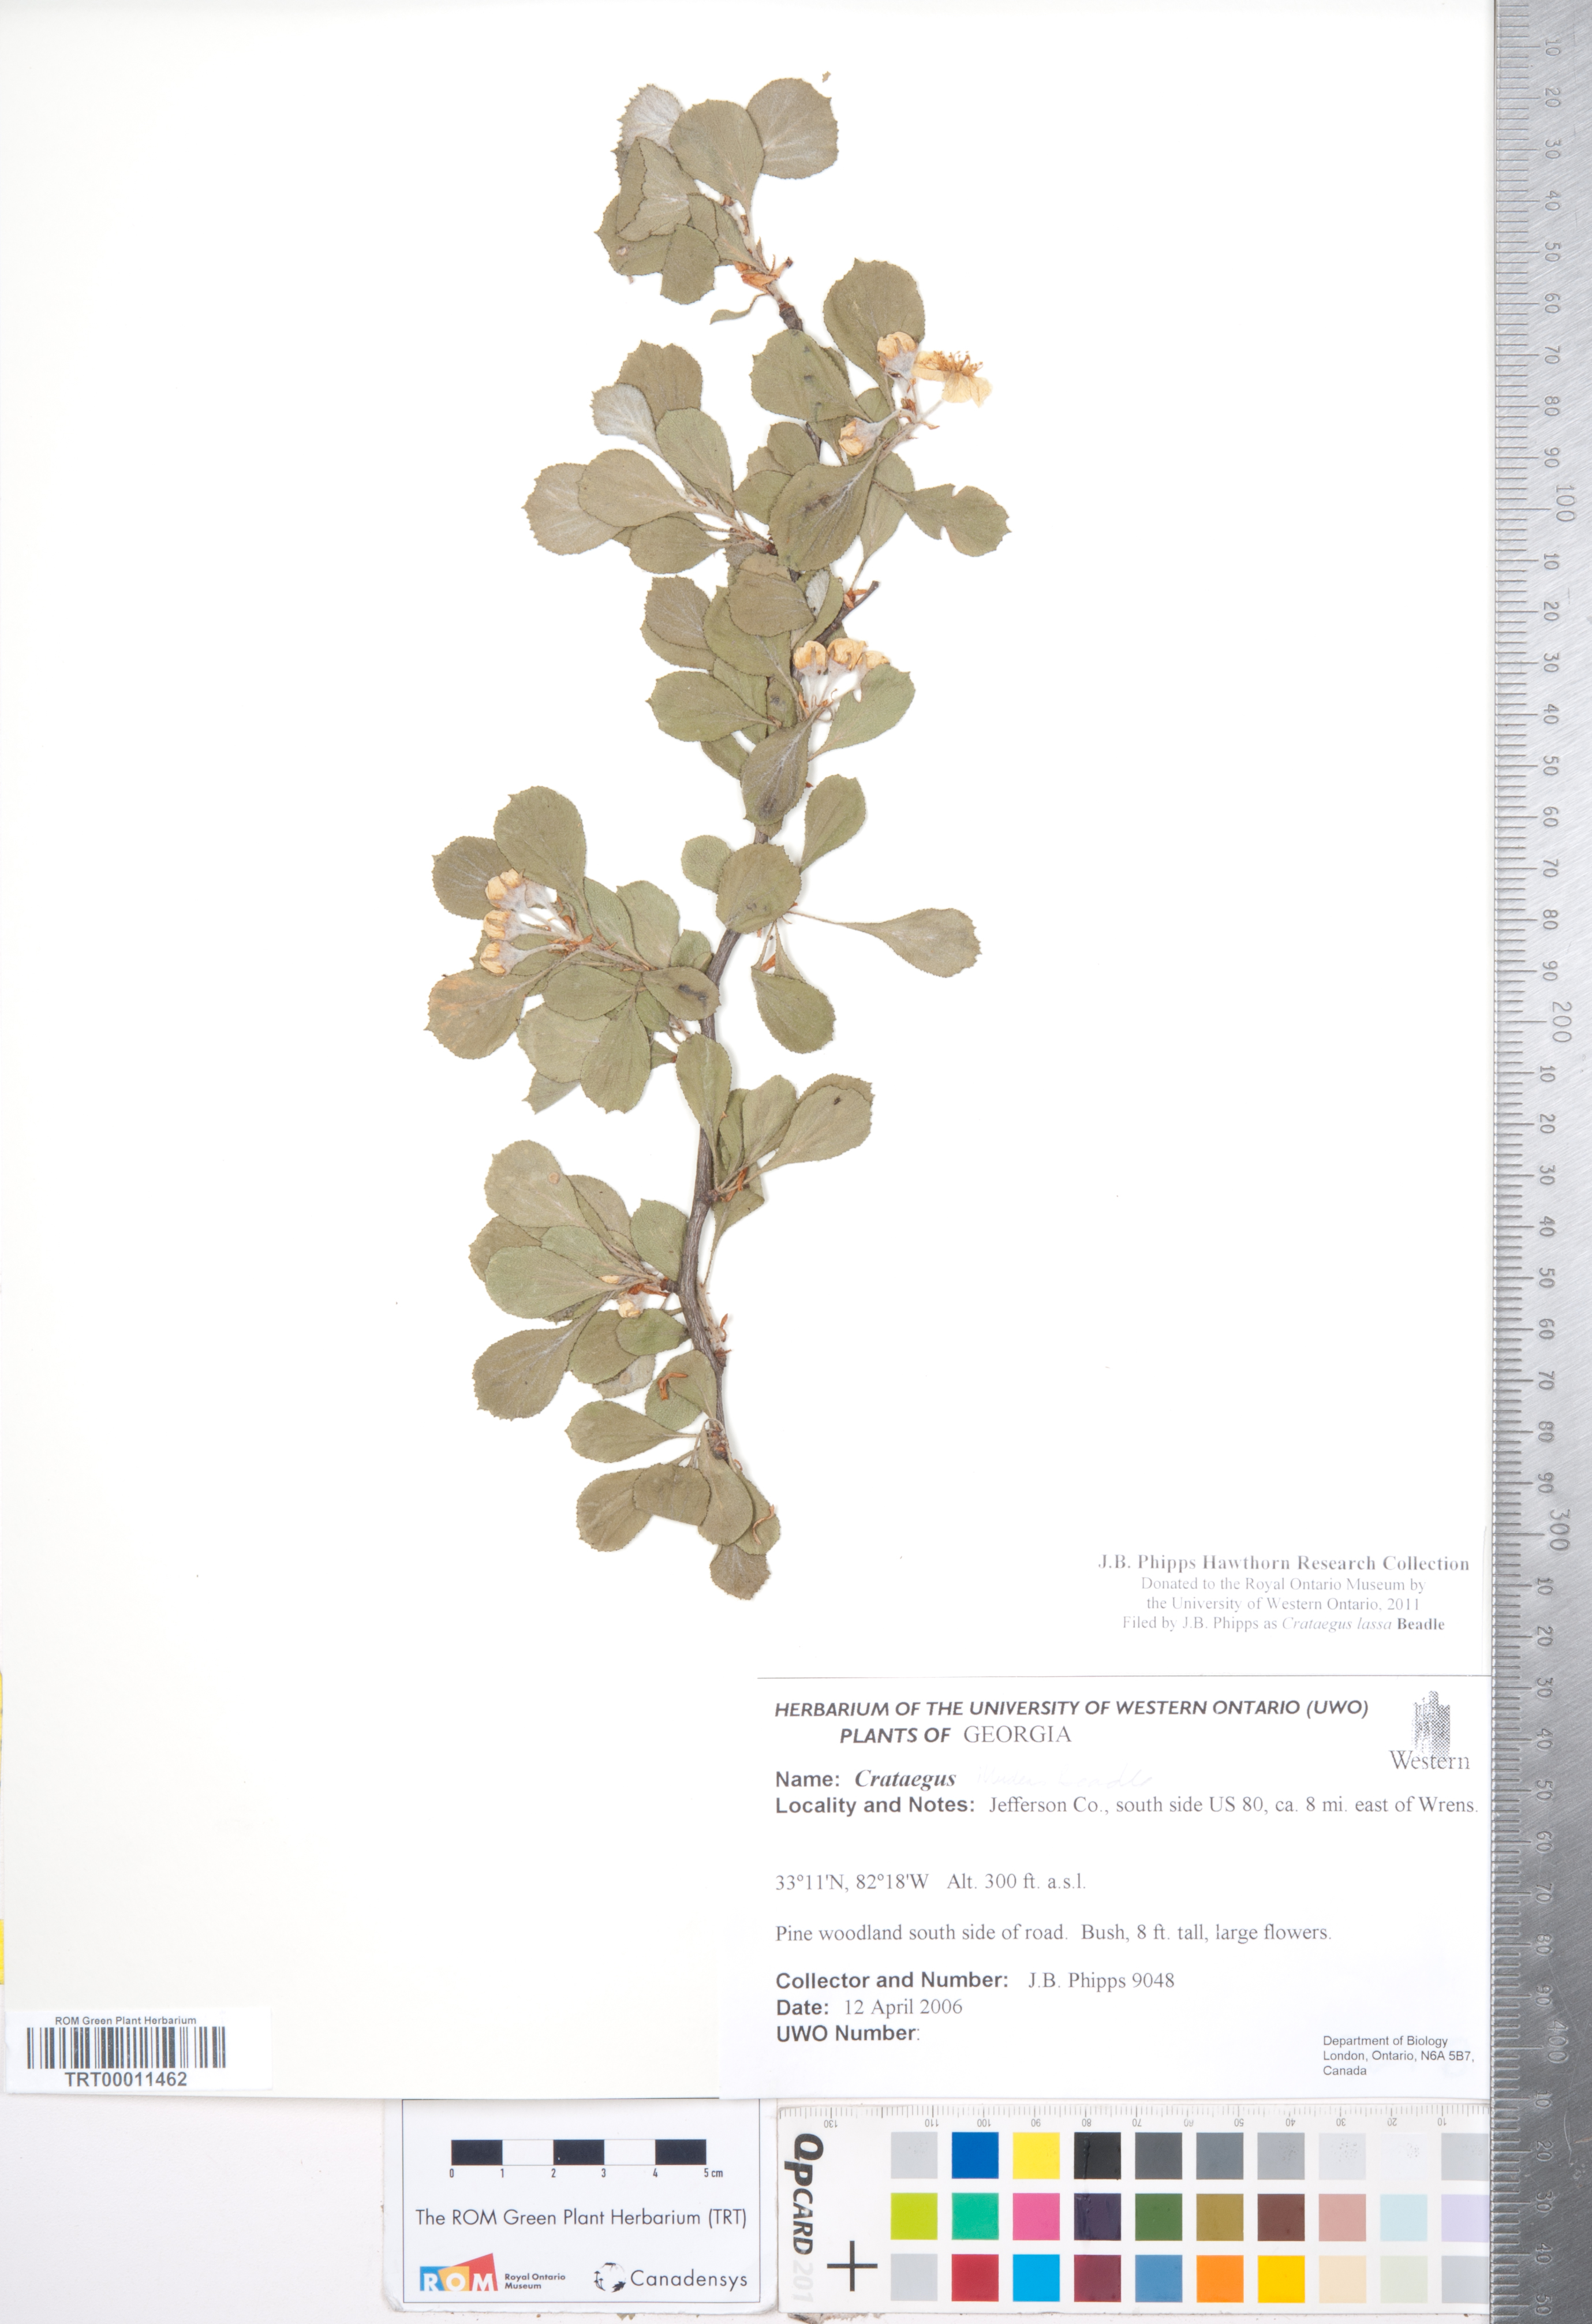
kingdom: Plantae
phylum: Tracheophyta
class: Magnoliopsida
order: Rosales
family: Rosaceae
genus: Crataegus
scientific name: Crataegus lassa
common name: Florida hawthorn
